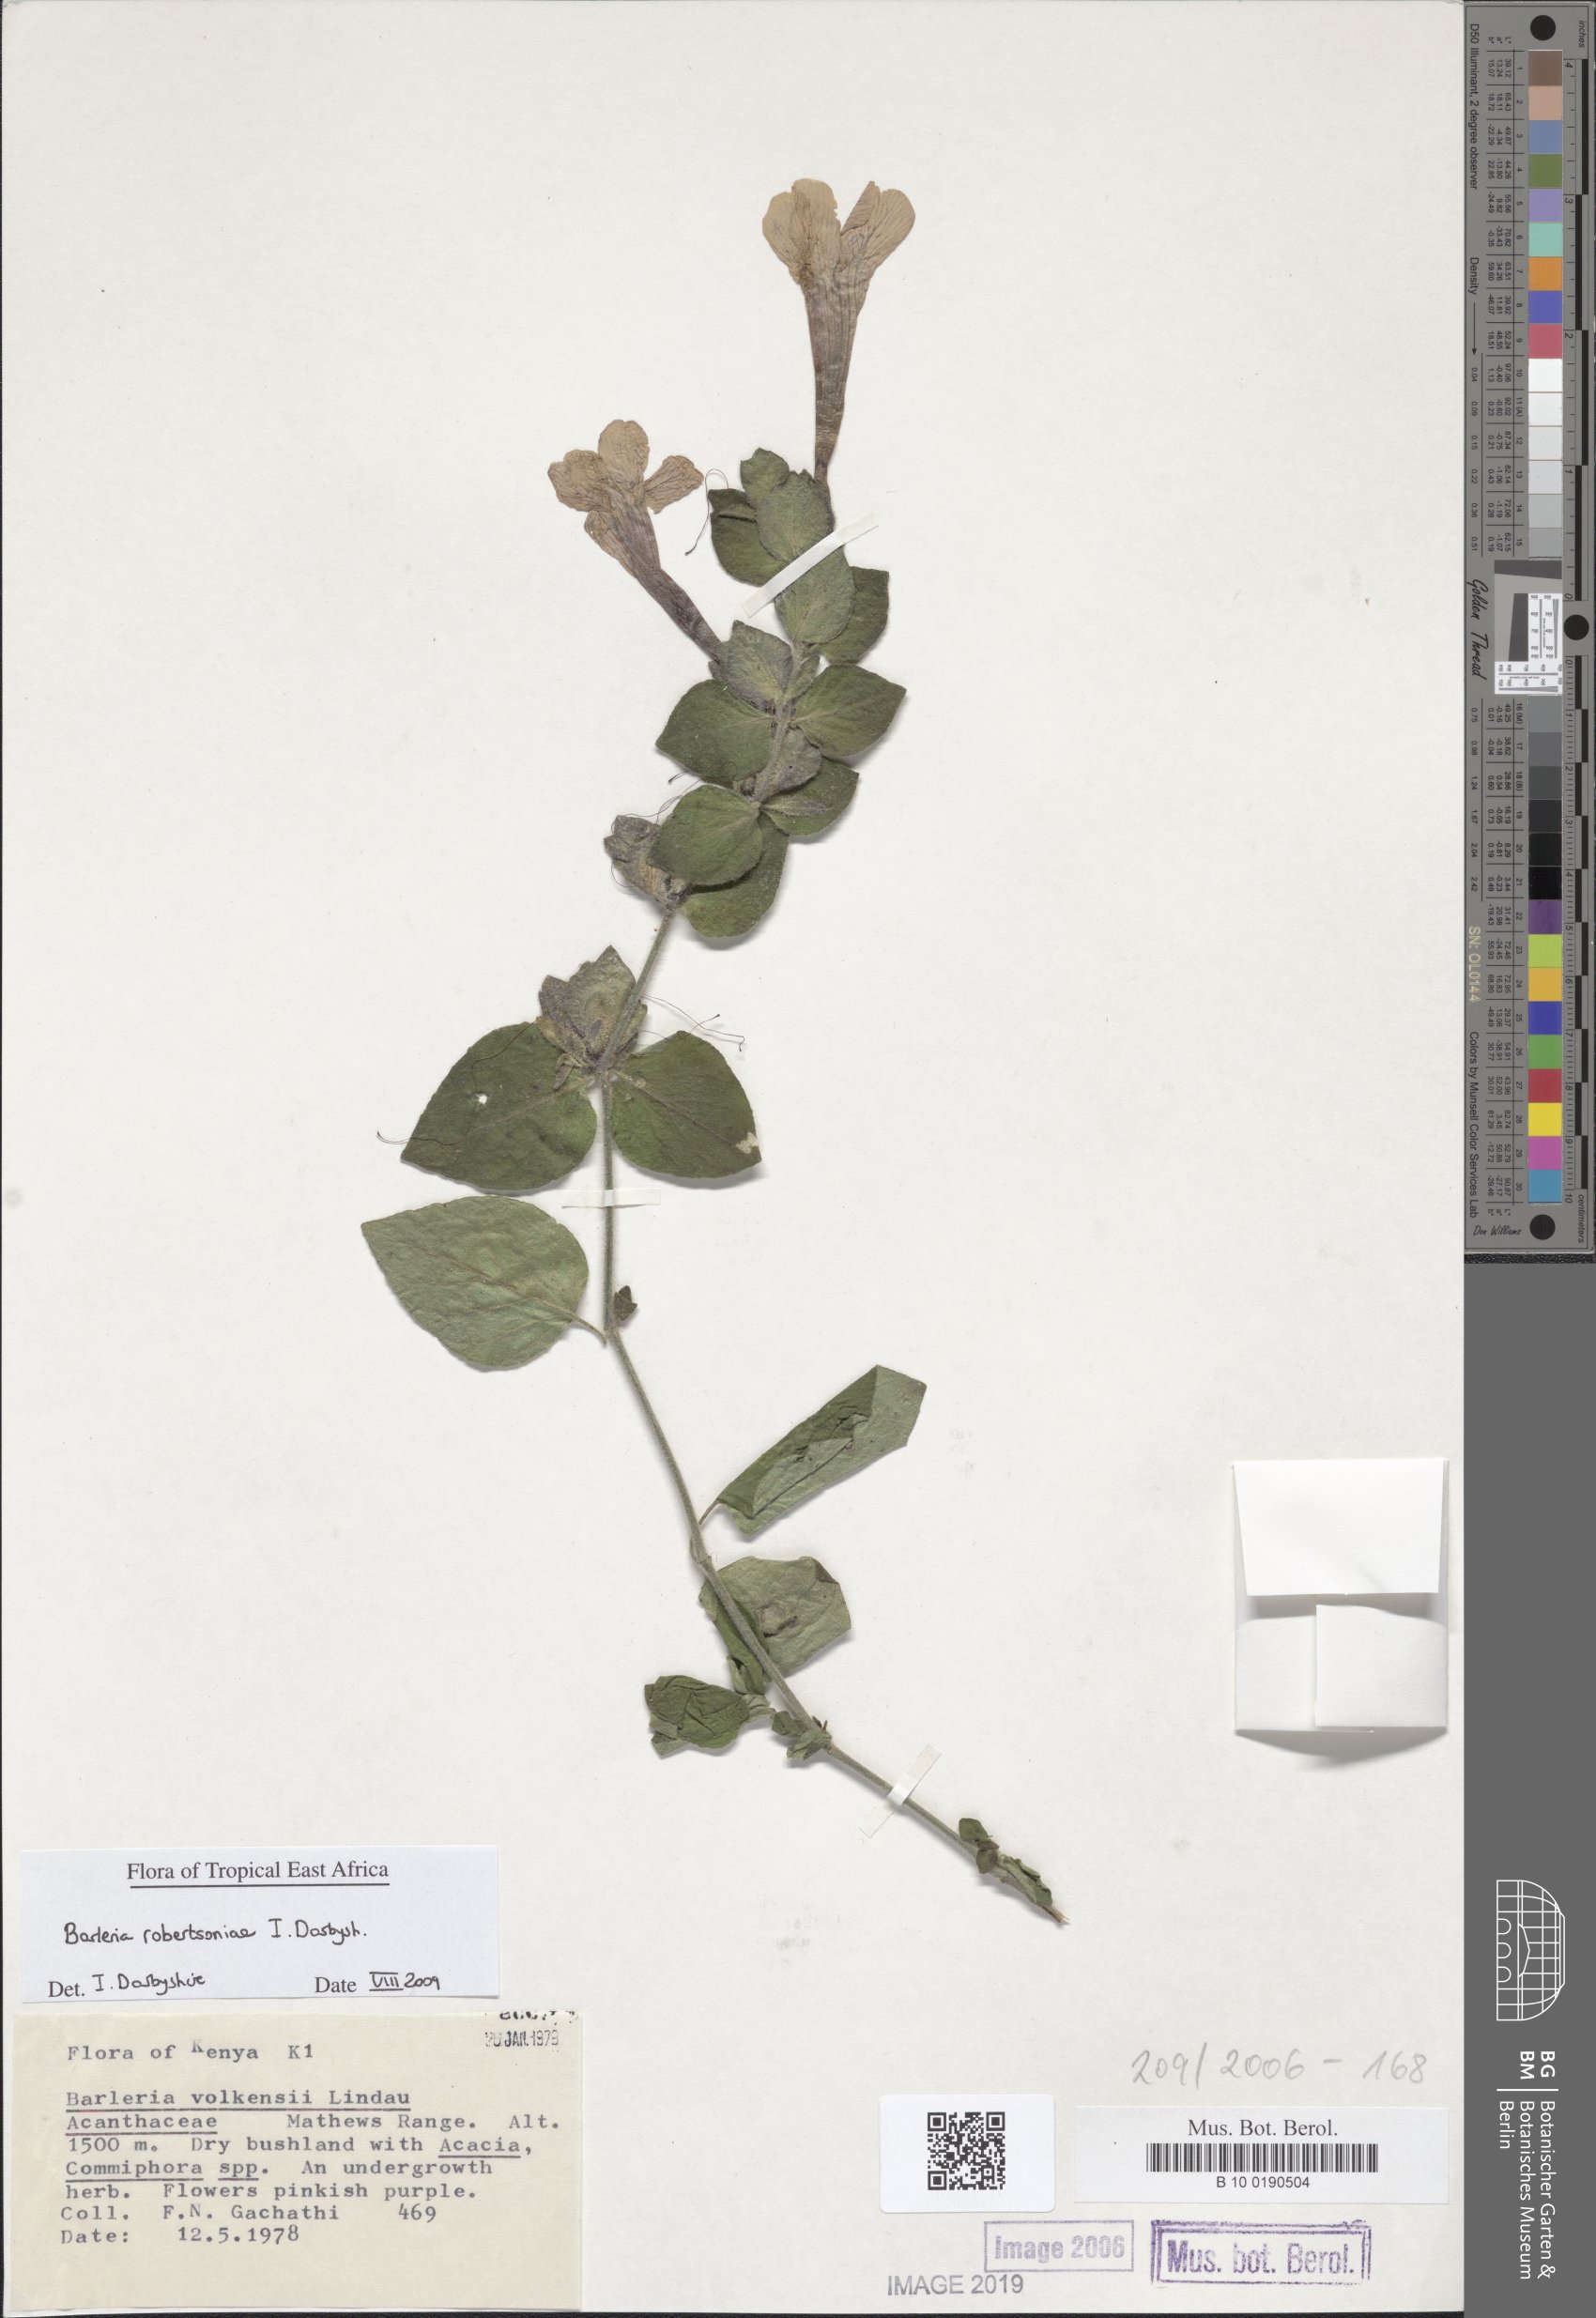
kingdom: Plantae
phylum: Tracheophyta
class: Magnoliopsida
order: Lamiales
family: Acanthaceae
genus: Barleria
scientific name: Barleria robertsoniae
